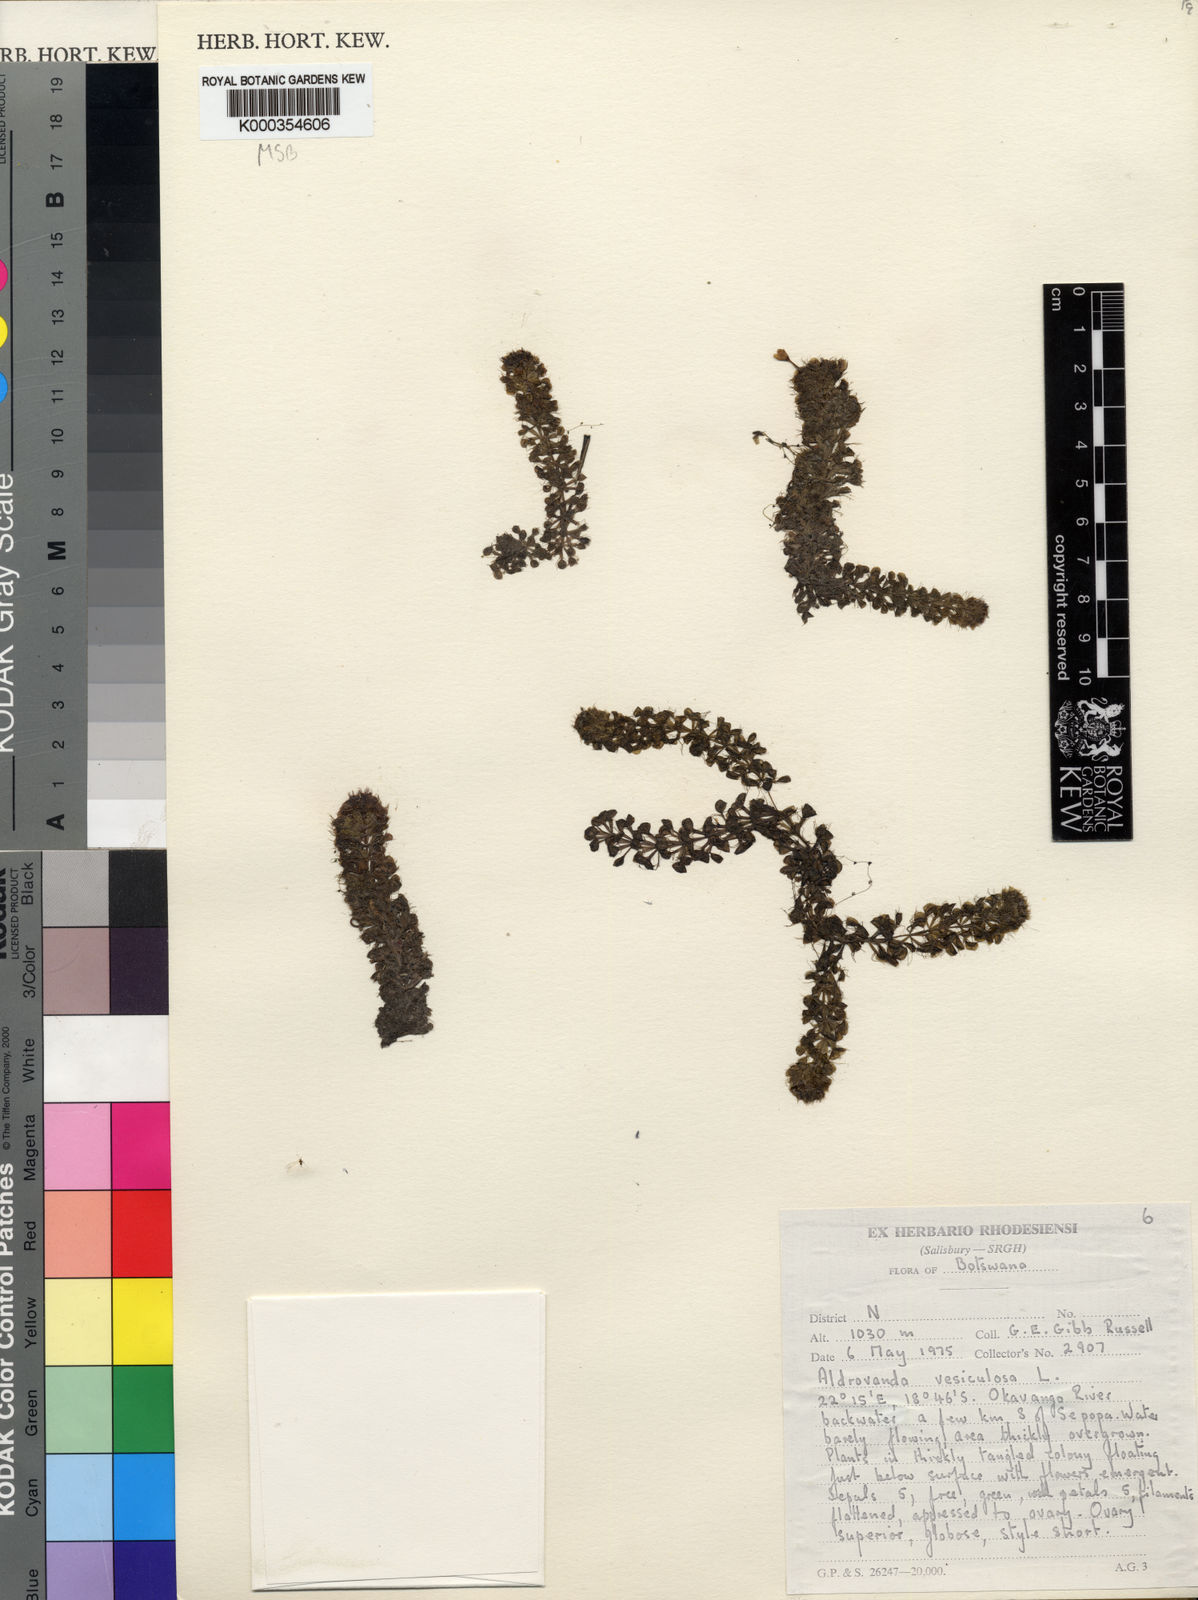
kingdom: Plantae
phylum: Tracheophyta
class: Magnoliopsida
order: Caryophyllales
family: Droseraceae
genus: Aldrovanda
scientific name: Aldrovanda vesiculosa
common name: Waterwheel plant
